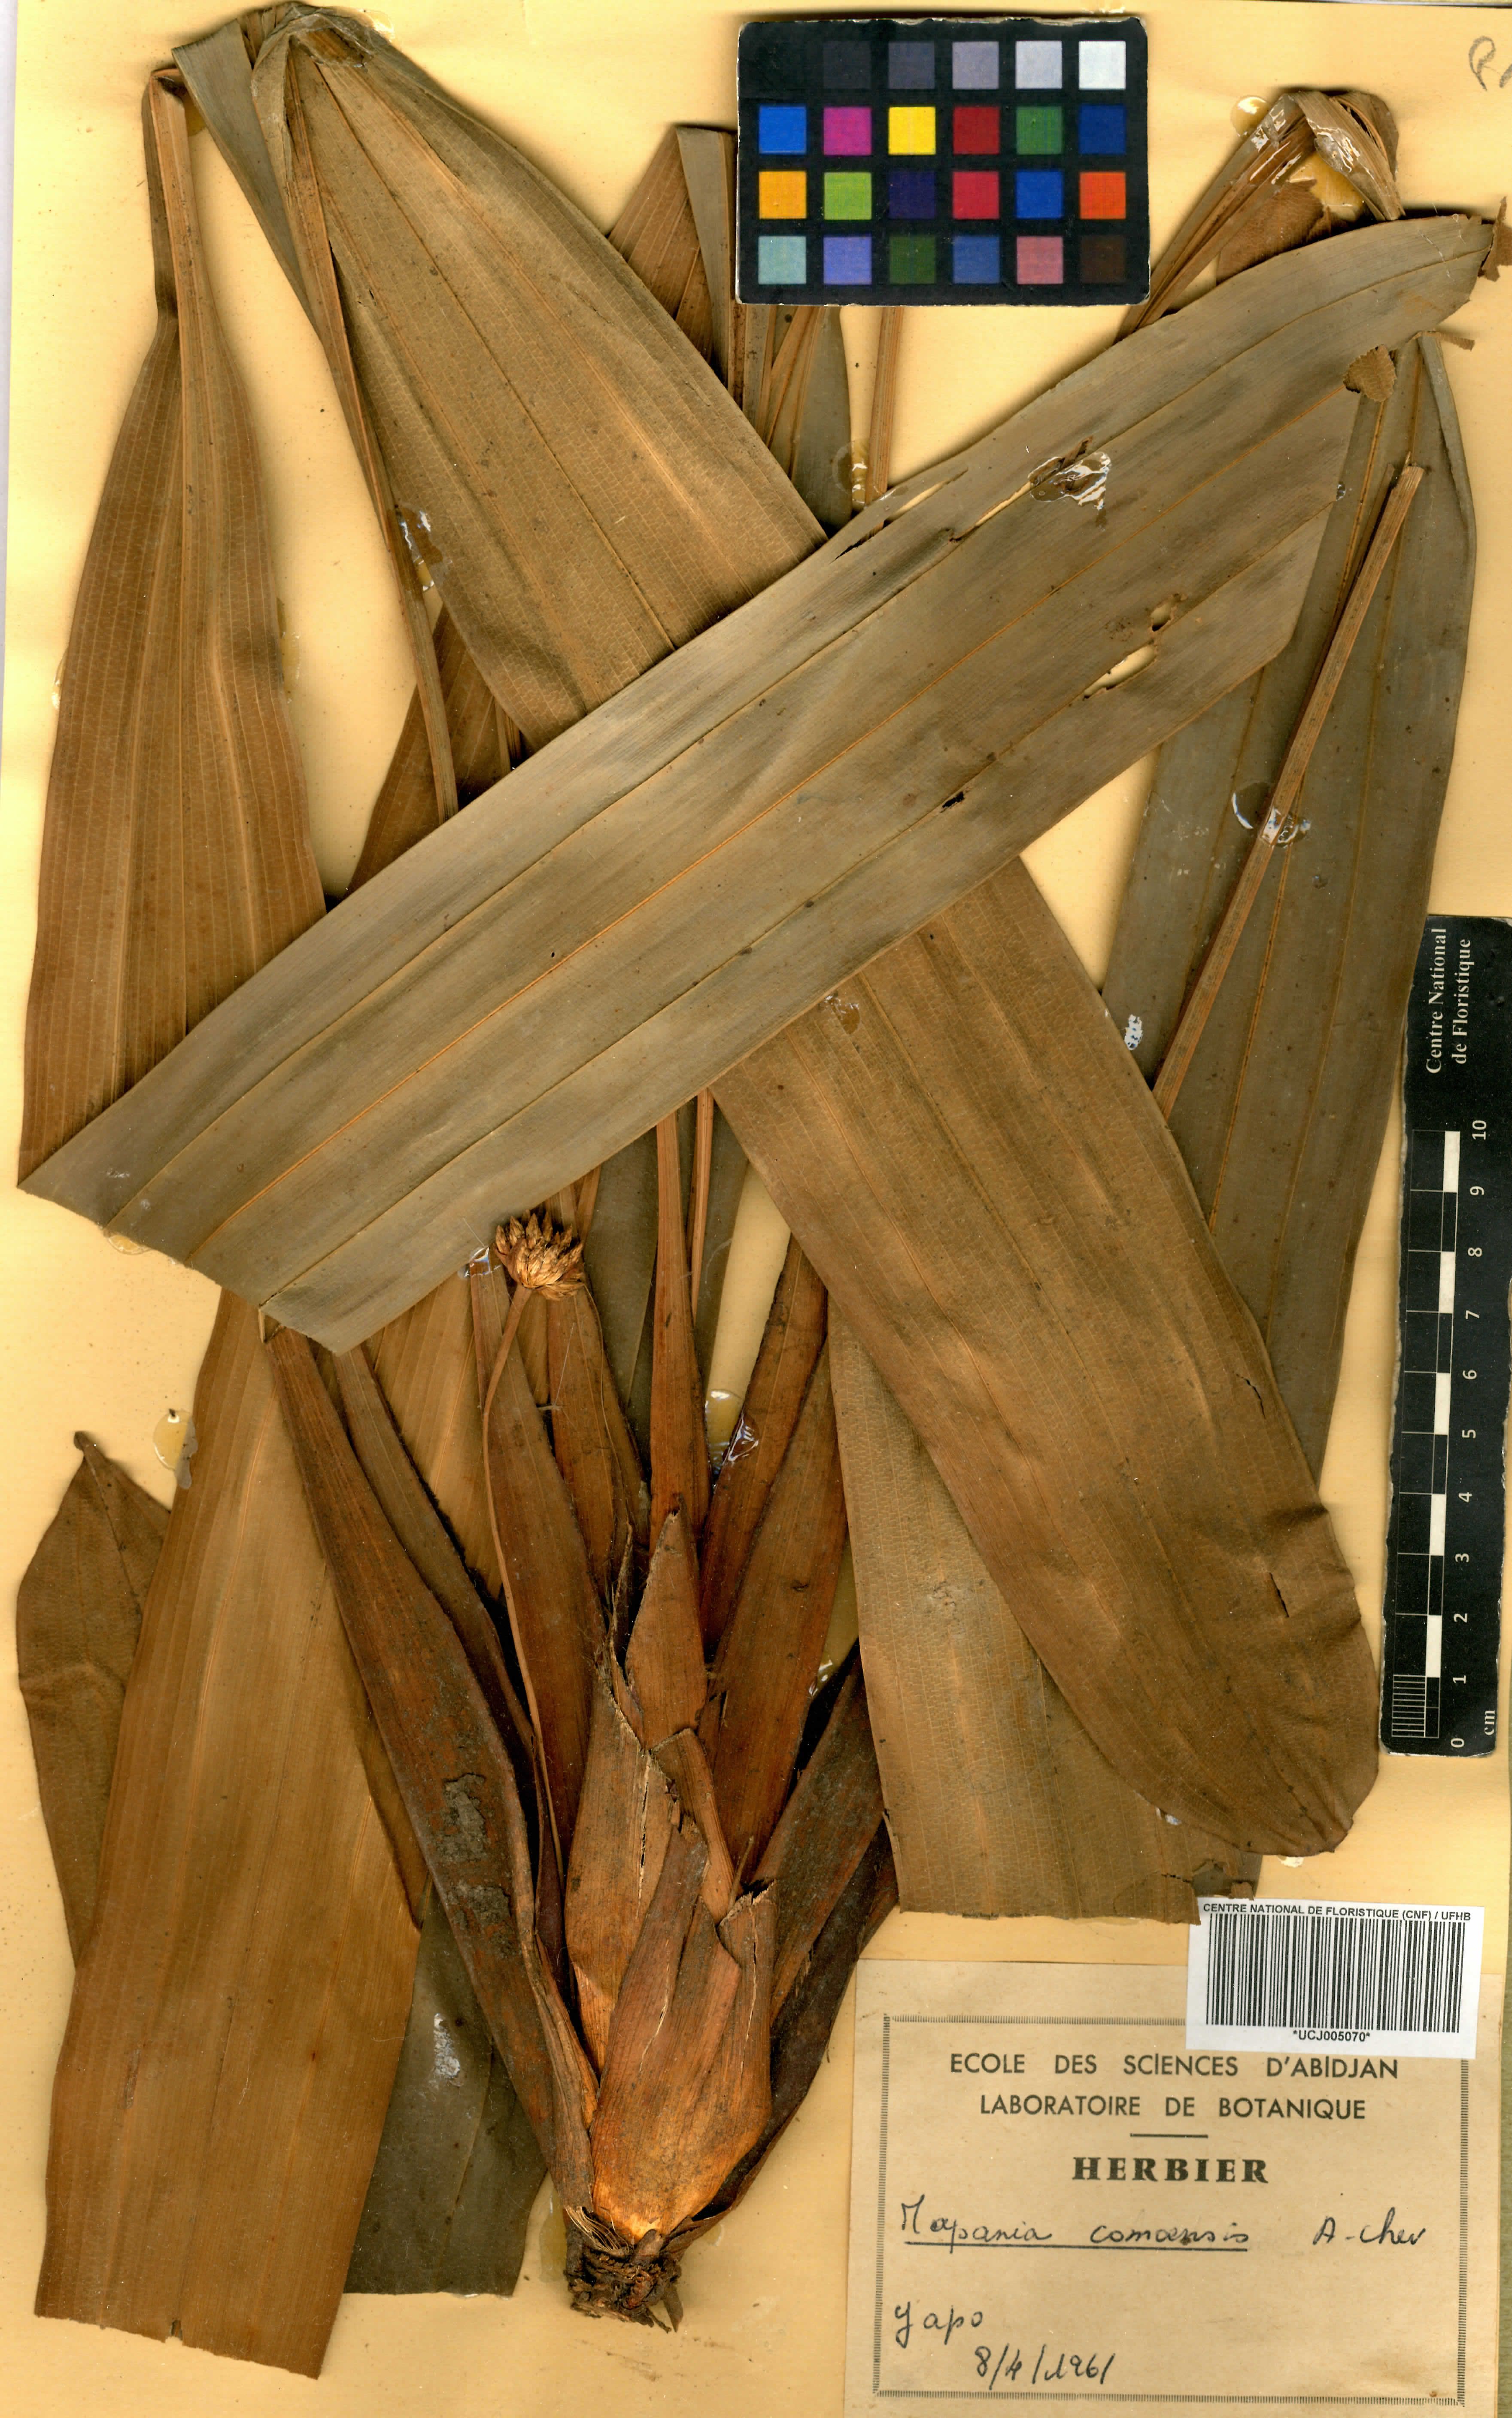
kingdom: Plantae
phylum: Tracheophyta
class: Liliopsida
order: Poales
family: Cyperaceae
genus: Mapania
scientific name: Mapania baldwinii
